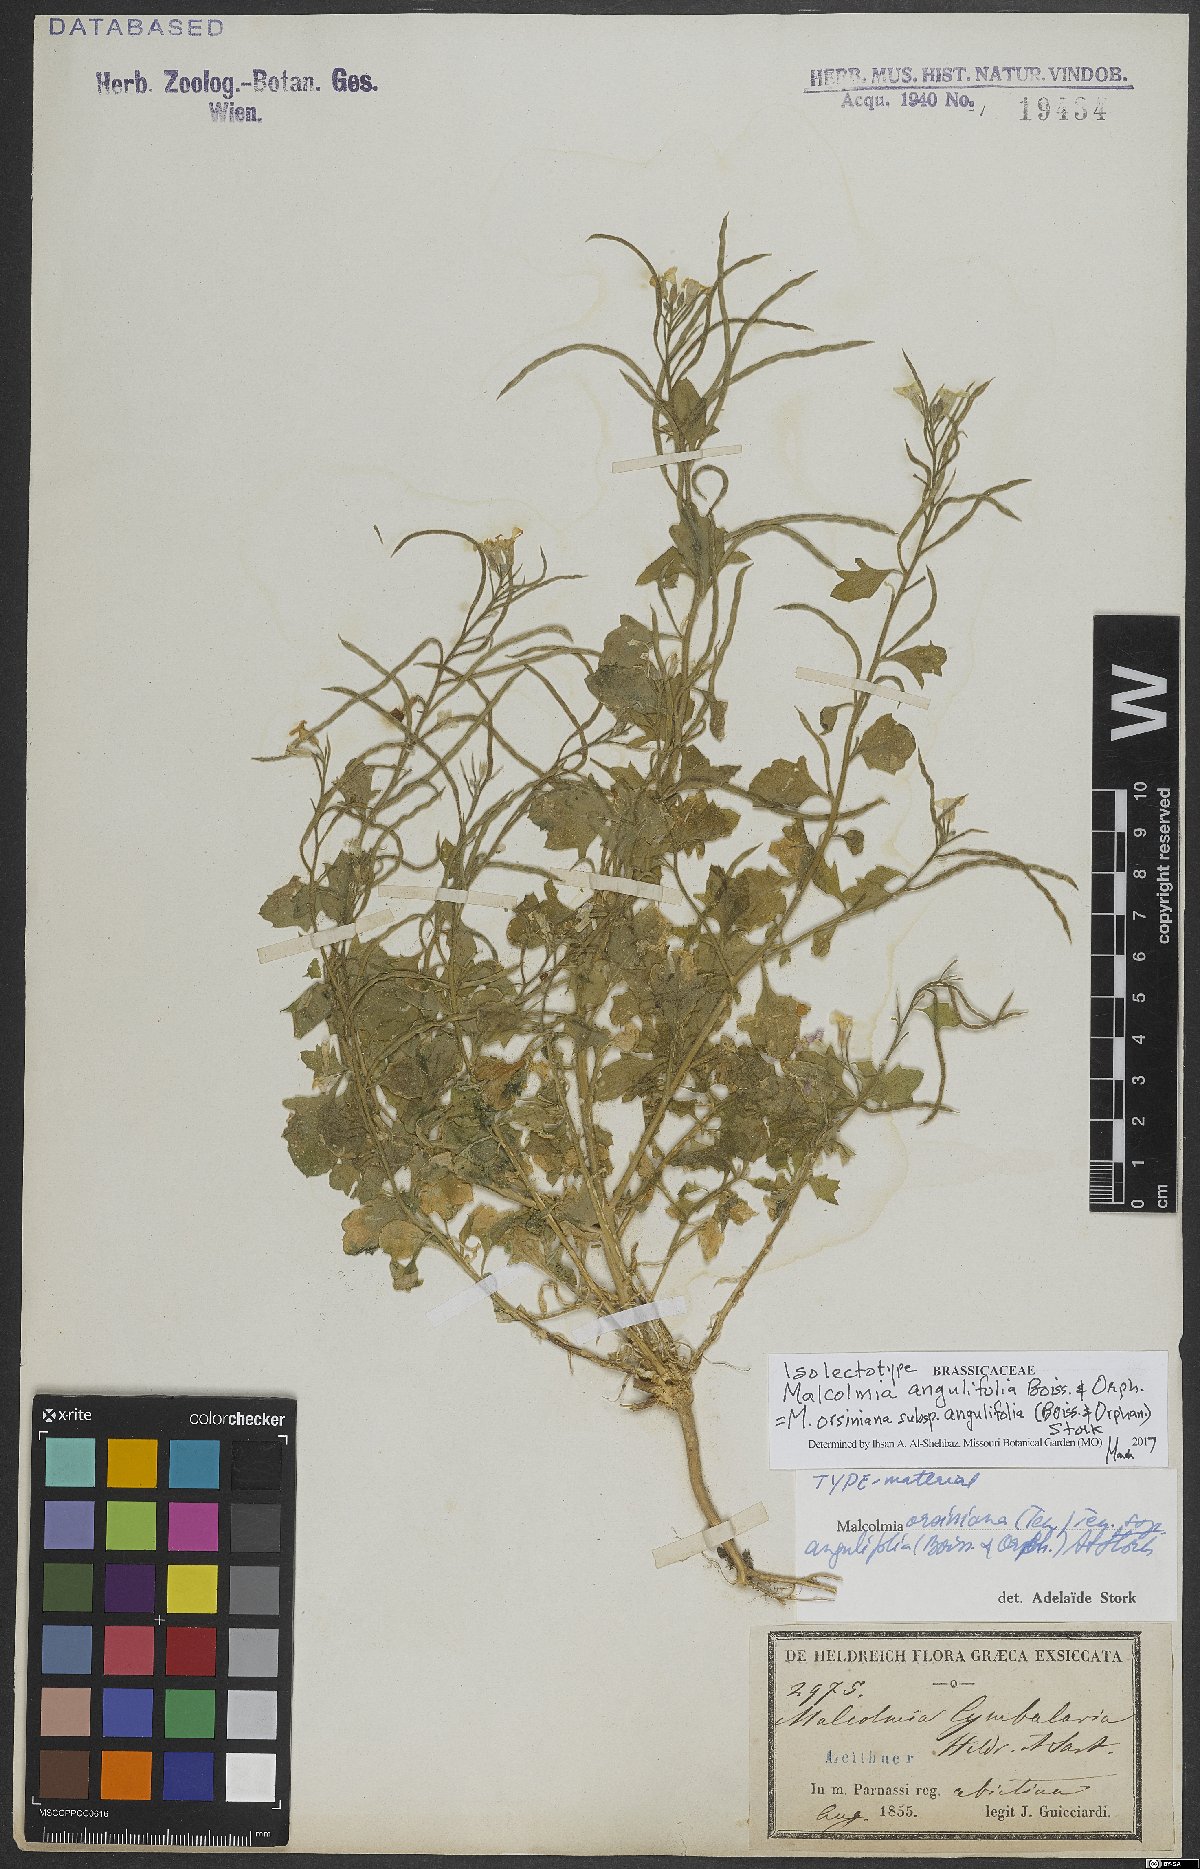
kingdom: Plantae
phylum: Tracheophyta
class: Magnoliopsida
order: Brassicales
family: Brassicaceae
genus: Malcolmia
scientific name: Malcolmia orsiniana
